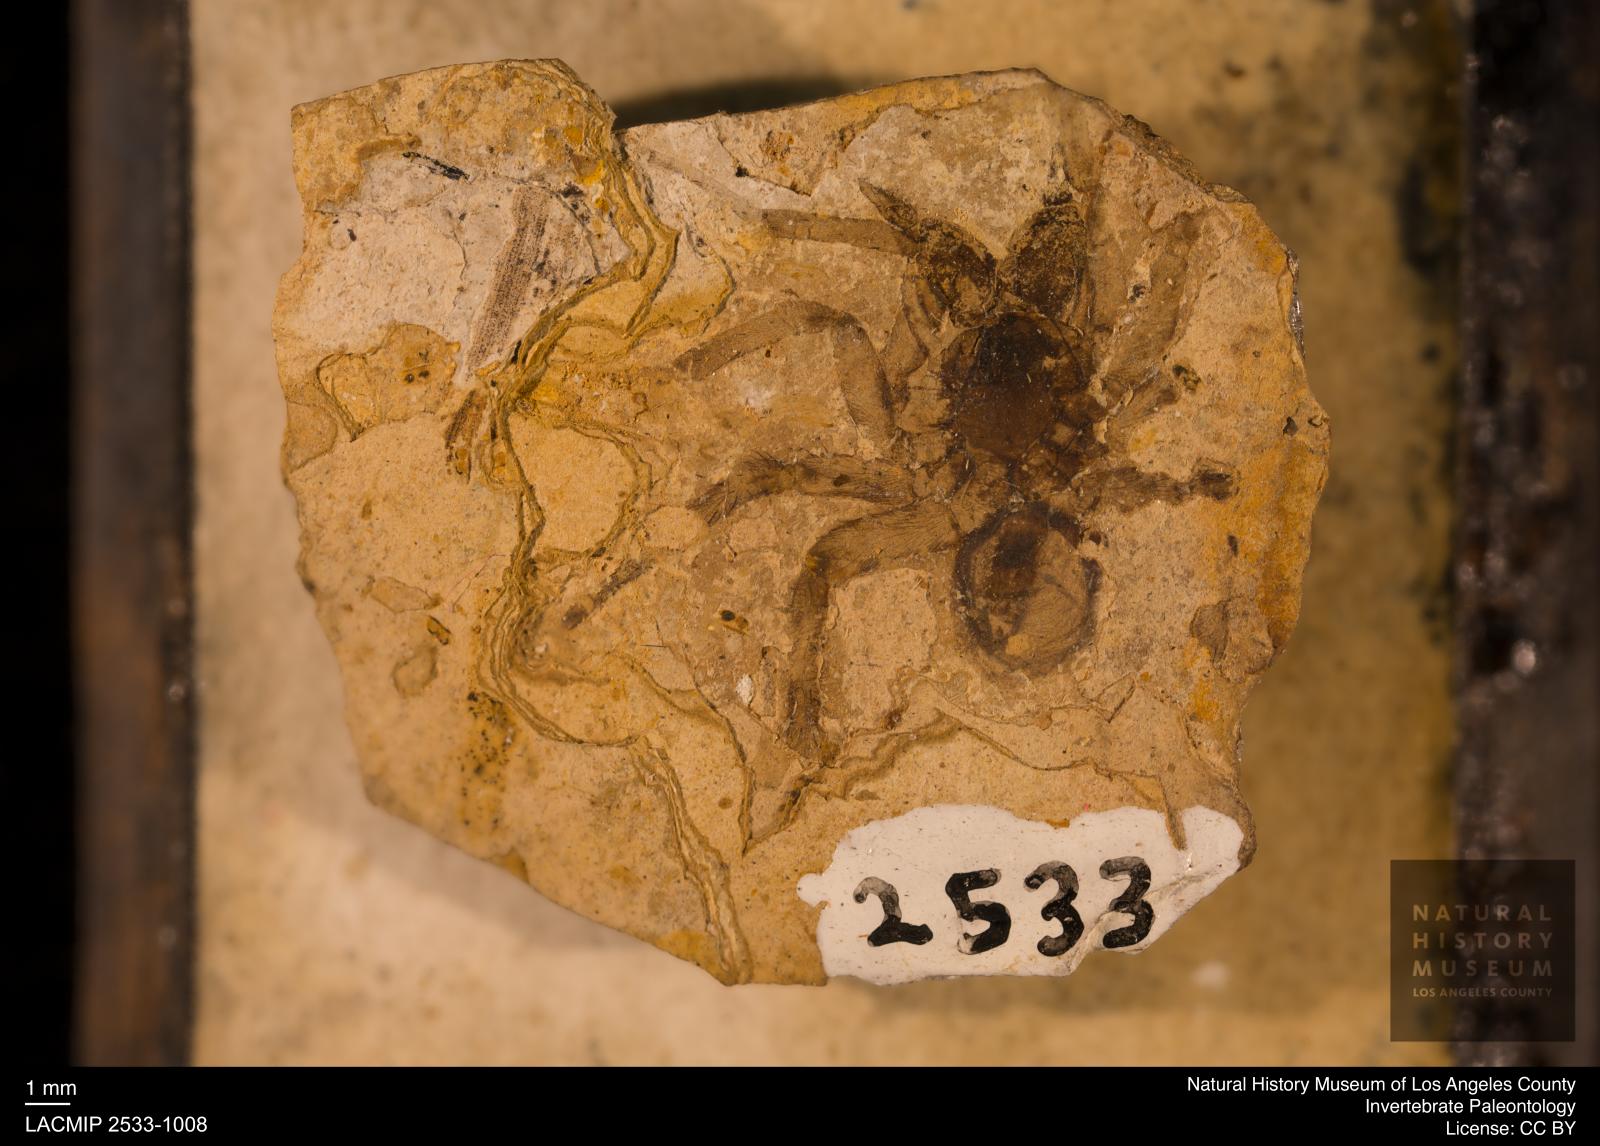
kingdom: Animalia
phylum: Arthropoda
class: Arachnida
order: Araneae
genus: Elvina
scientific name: Elvina Argyroneta antiqua
